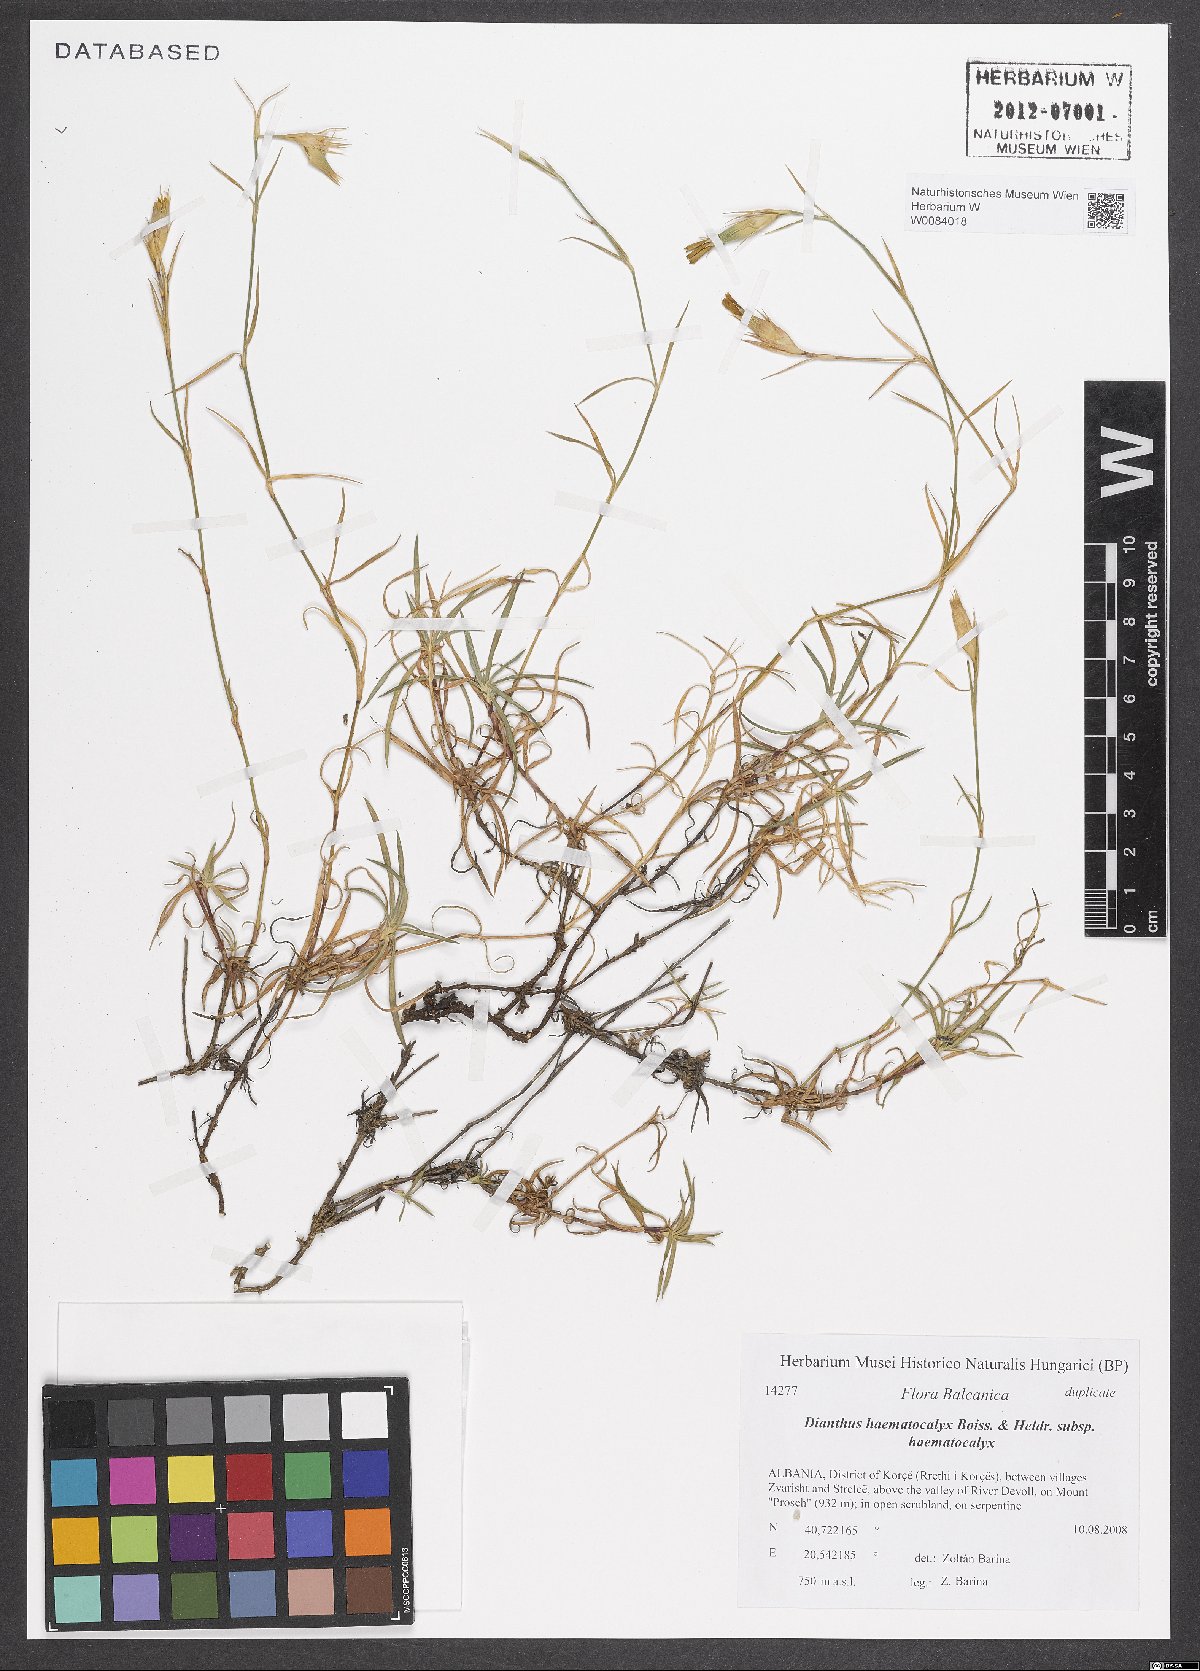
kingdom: Plantae
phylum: Tracheophyta
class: Magnoliopsida
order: Caryophyllales
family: Caryophyllaceae
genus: Dianthus
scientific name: Dianthus haematocalyx
